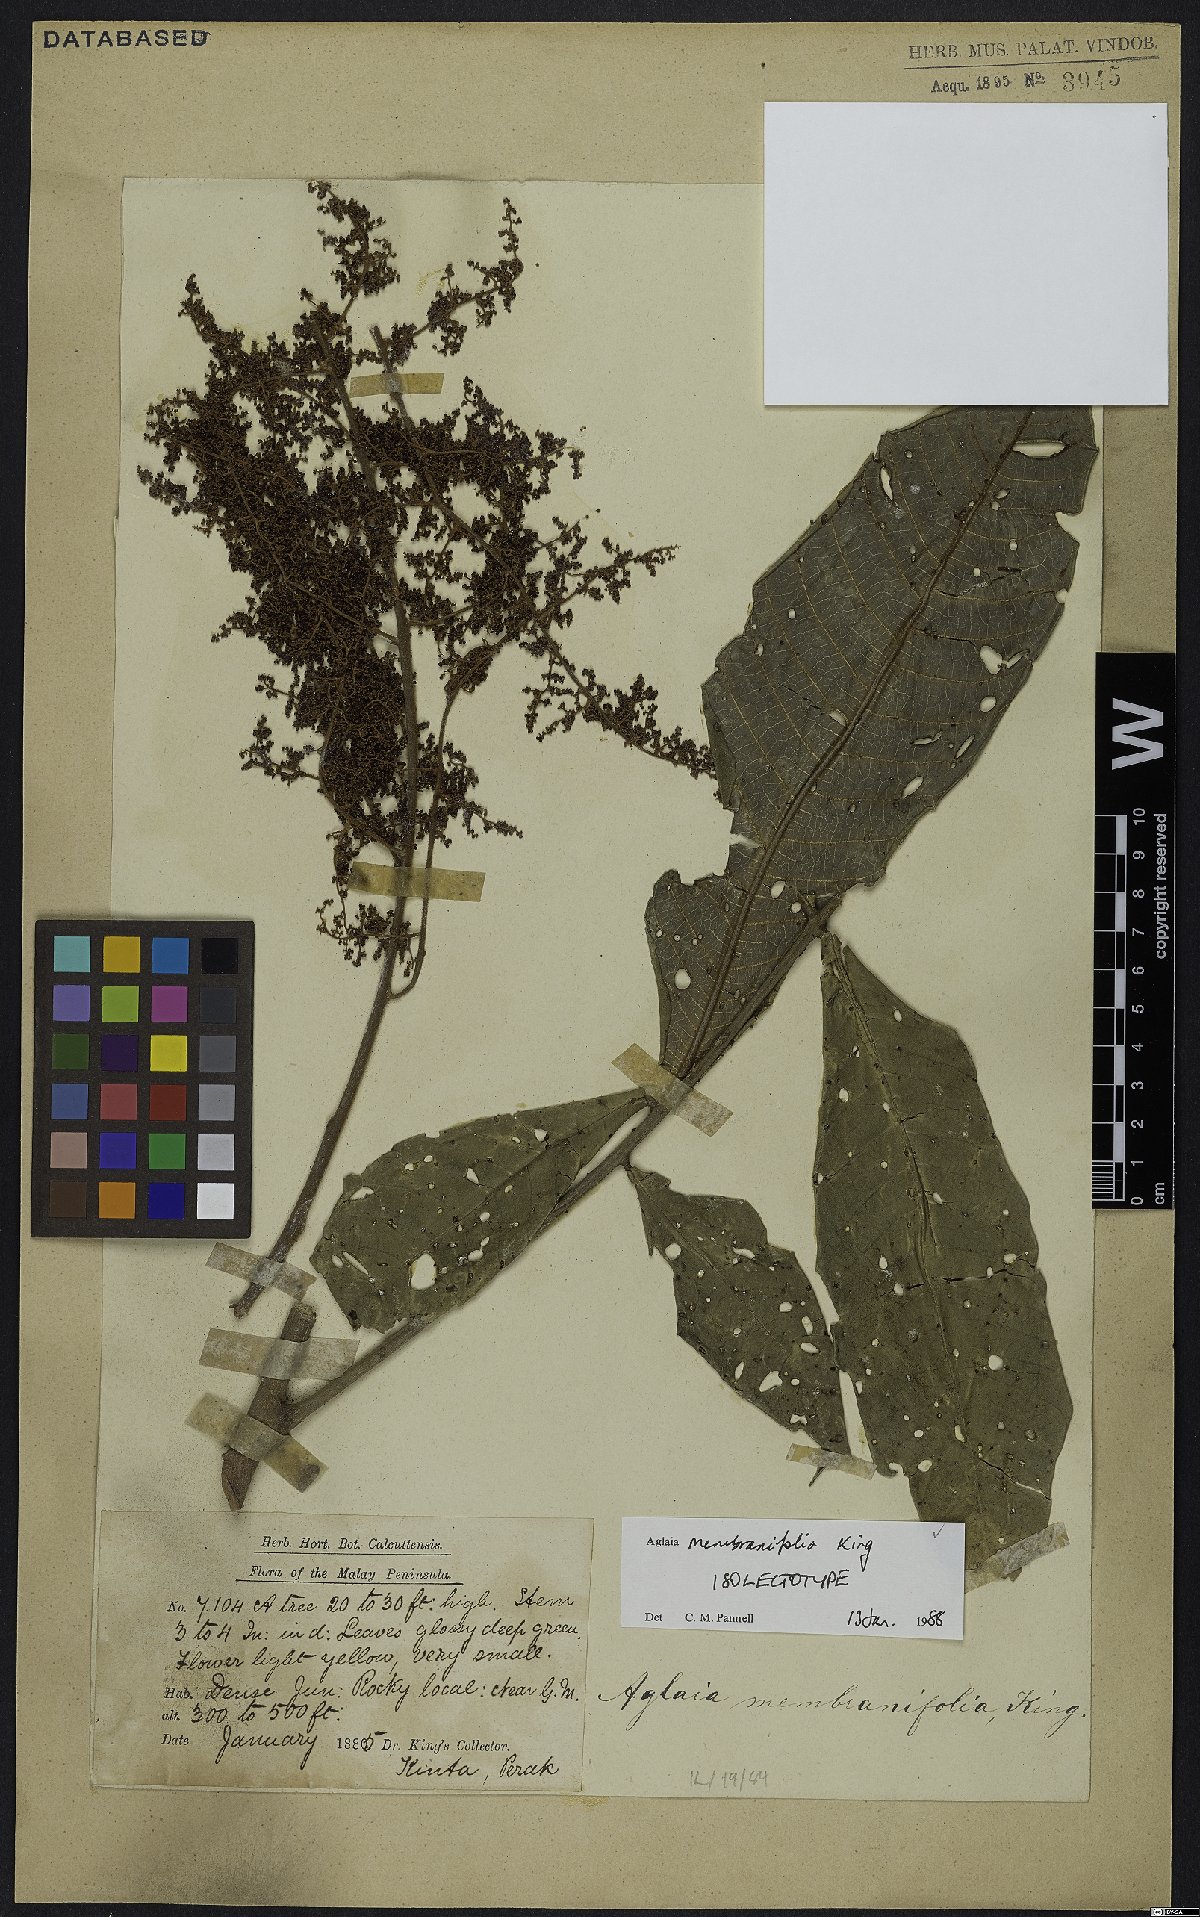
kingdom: Plantae
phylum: Tracheophyta
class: Magnoliopsida
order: Sapindales
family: Meliaceae
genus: Aglaia
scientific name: Aglaia membranifolia
